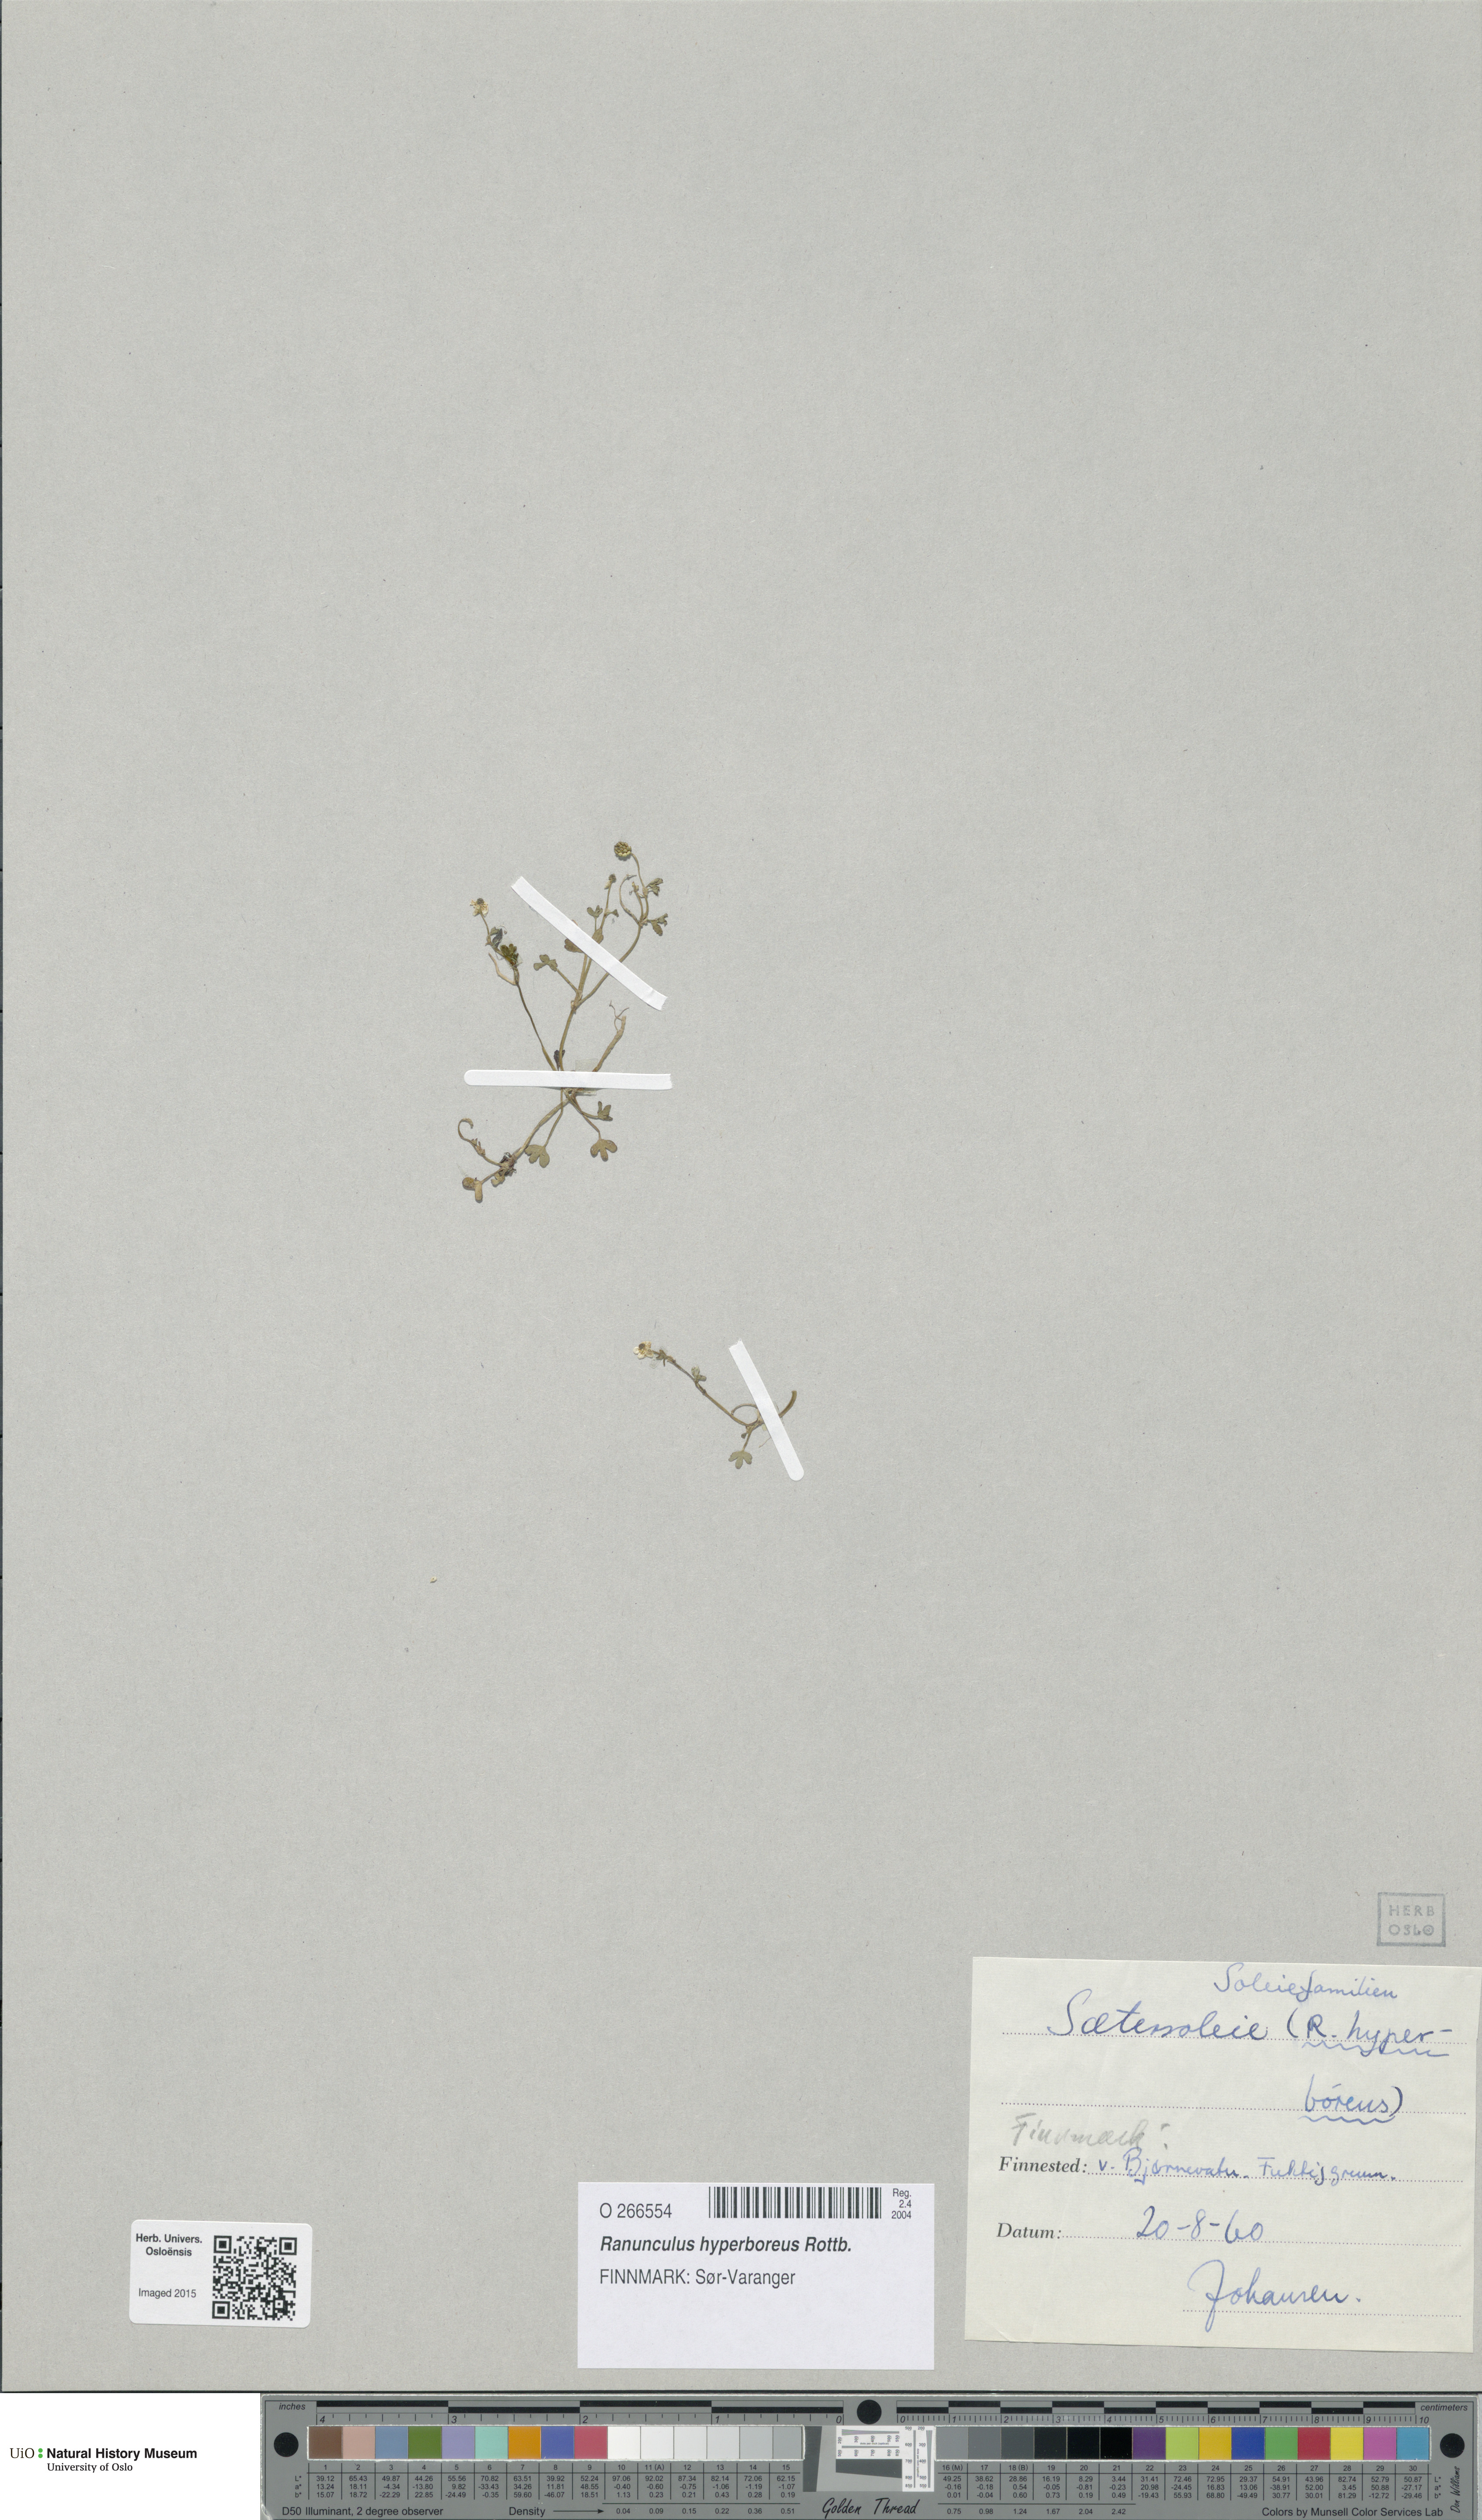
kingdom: Plantae
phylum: Tracheophyta
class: Magnoliopsida
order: Ranunculales
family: Ranunculaceae
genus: Ranunculus
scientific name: Ranunculus hyperboreus
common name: Arctic buttercup
